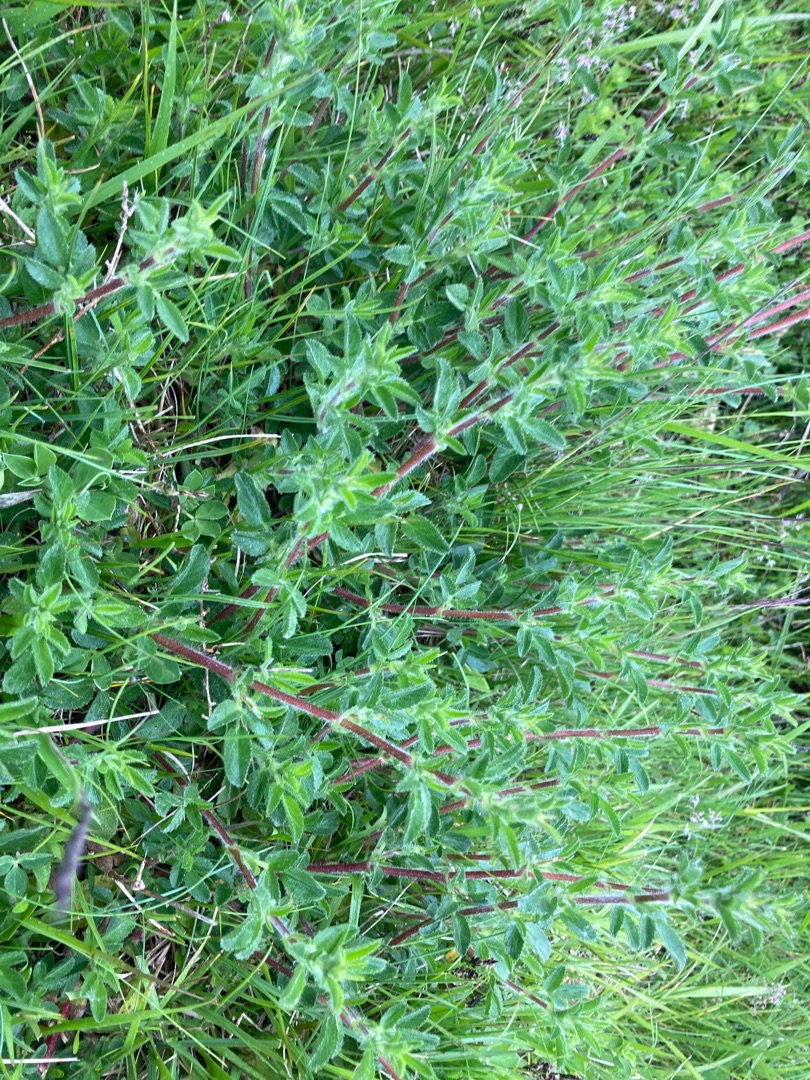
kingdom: Plantae
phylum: Tracheophyta
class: Magnoliopsida
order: Fabales
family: Fabaceae
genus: Ononis
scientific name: Ononis spinosa
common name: Mark-krageklo
